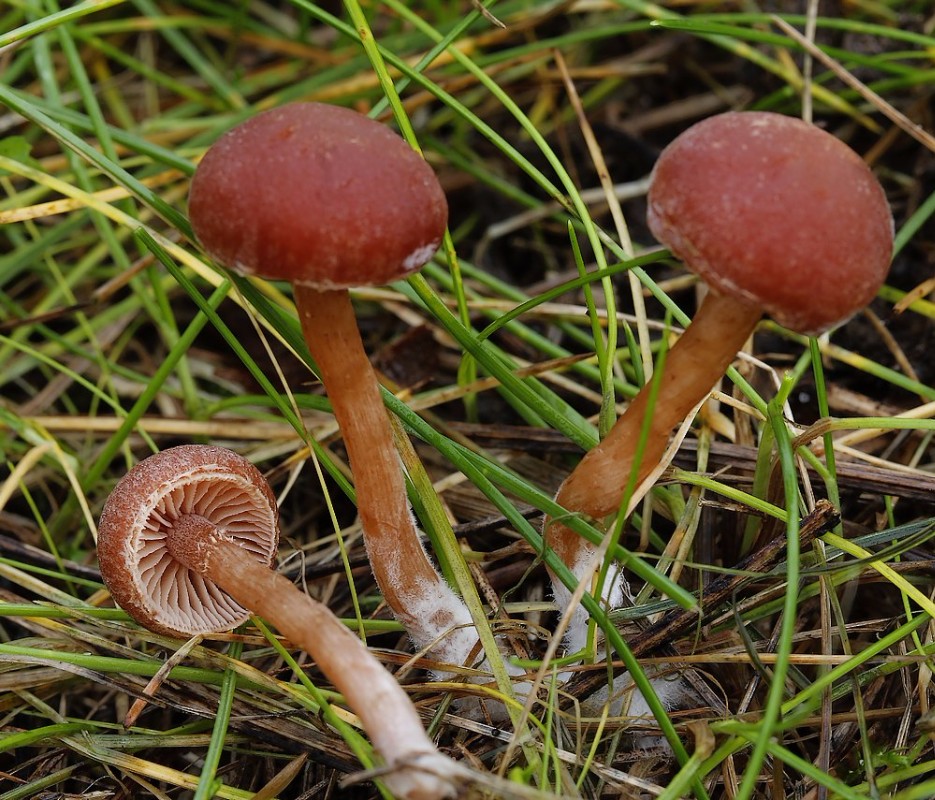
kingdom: Fungi
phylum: Basidiomycota
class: Agaricomycetes
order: Agaricales
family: Strophariaceae
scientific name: Strophariaceae
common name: bredbladfamilien
